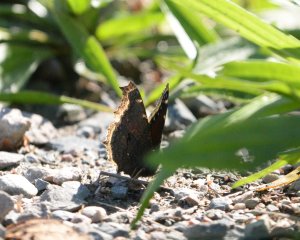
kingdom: Animalia
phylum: Arthropoda
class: Insecta
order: Lepidoptera
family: Nymphalidae
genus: Nymphalis
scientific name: Nymphalis antiopa
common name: Mourning Cloak
